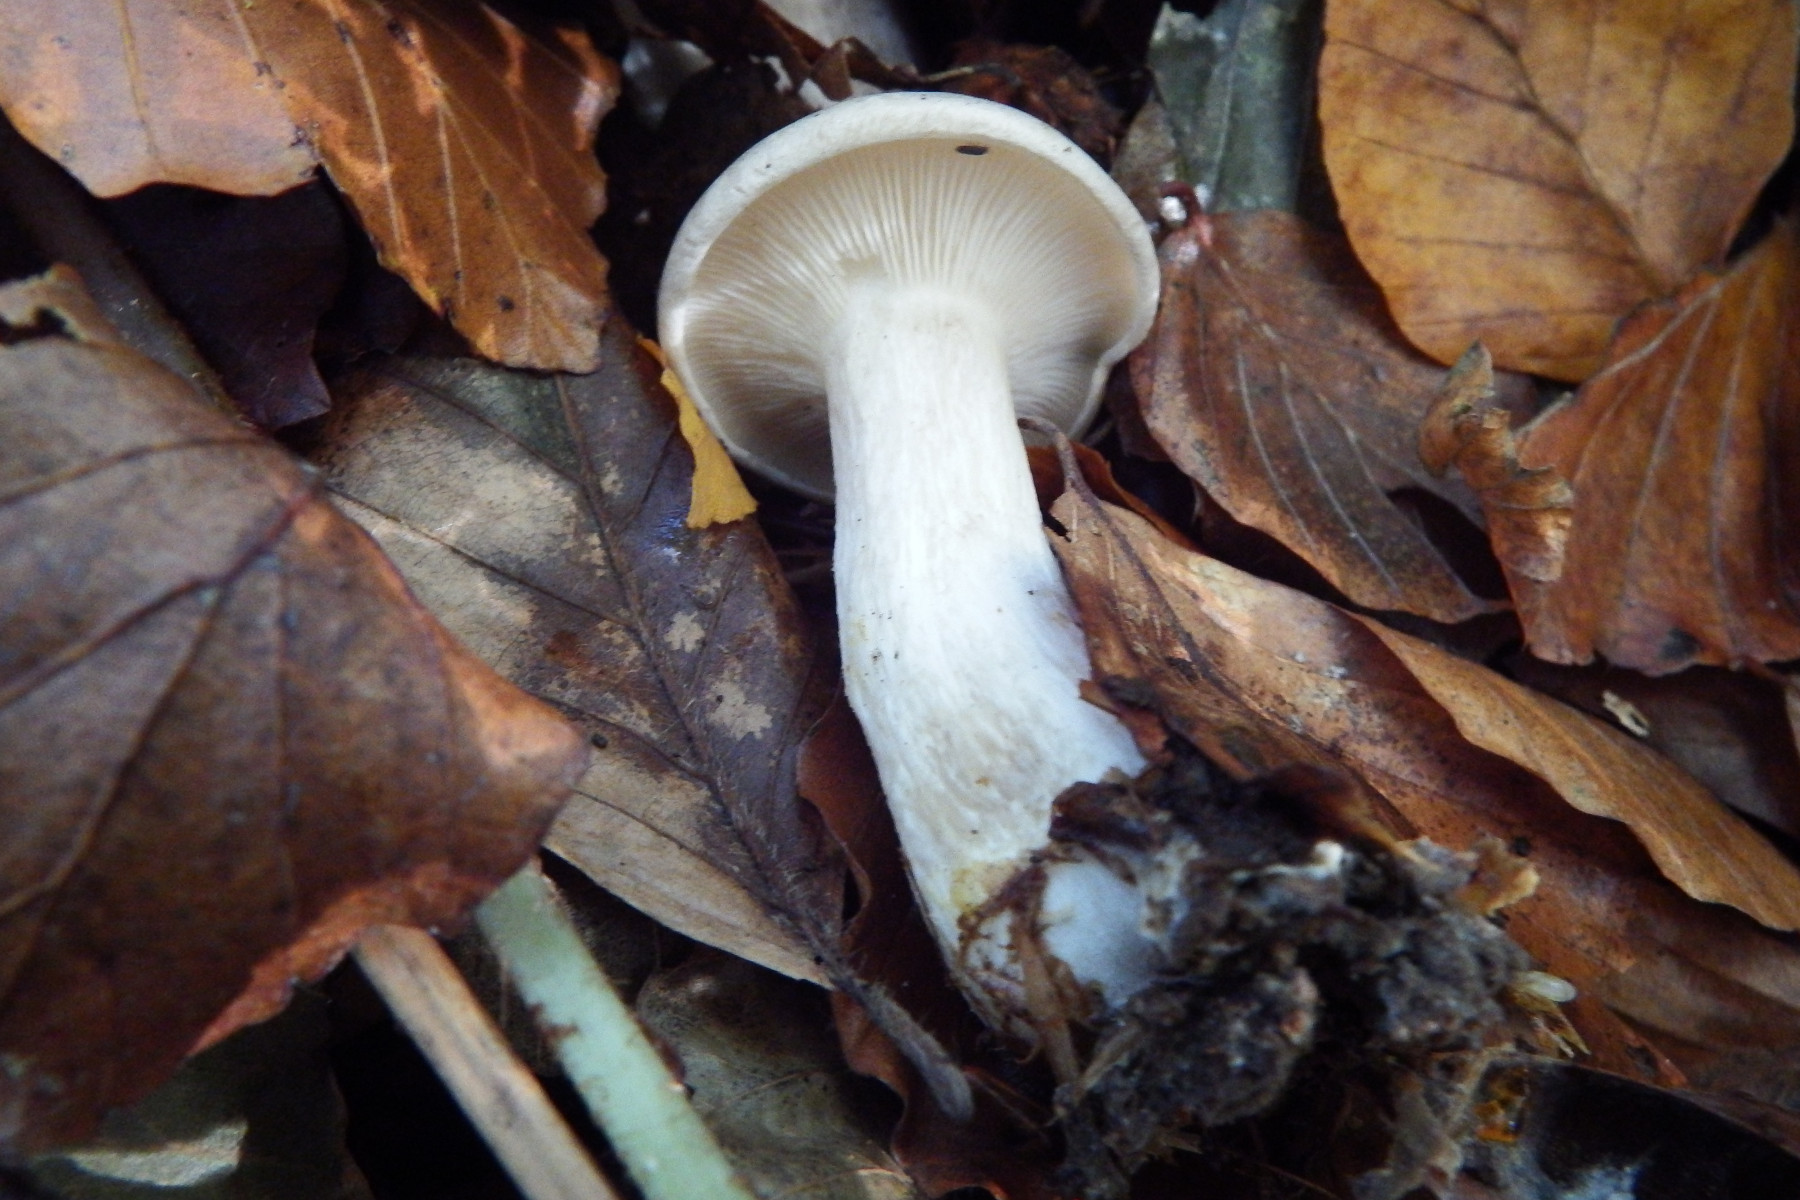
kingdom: Fungi
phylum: Basidiomycota
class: Agaricomycetes
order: Agaricales
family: Tricholomataceae
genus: Clitocybe
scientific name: Clitocybe nebularis
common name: tåge-tragthat
